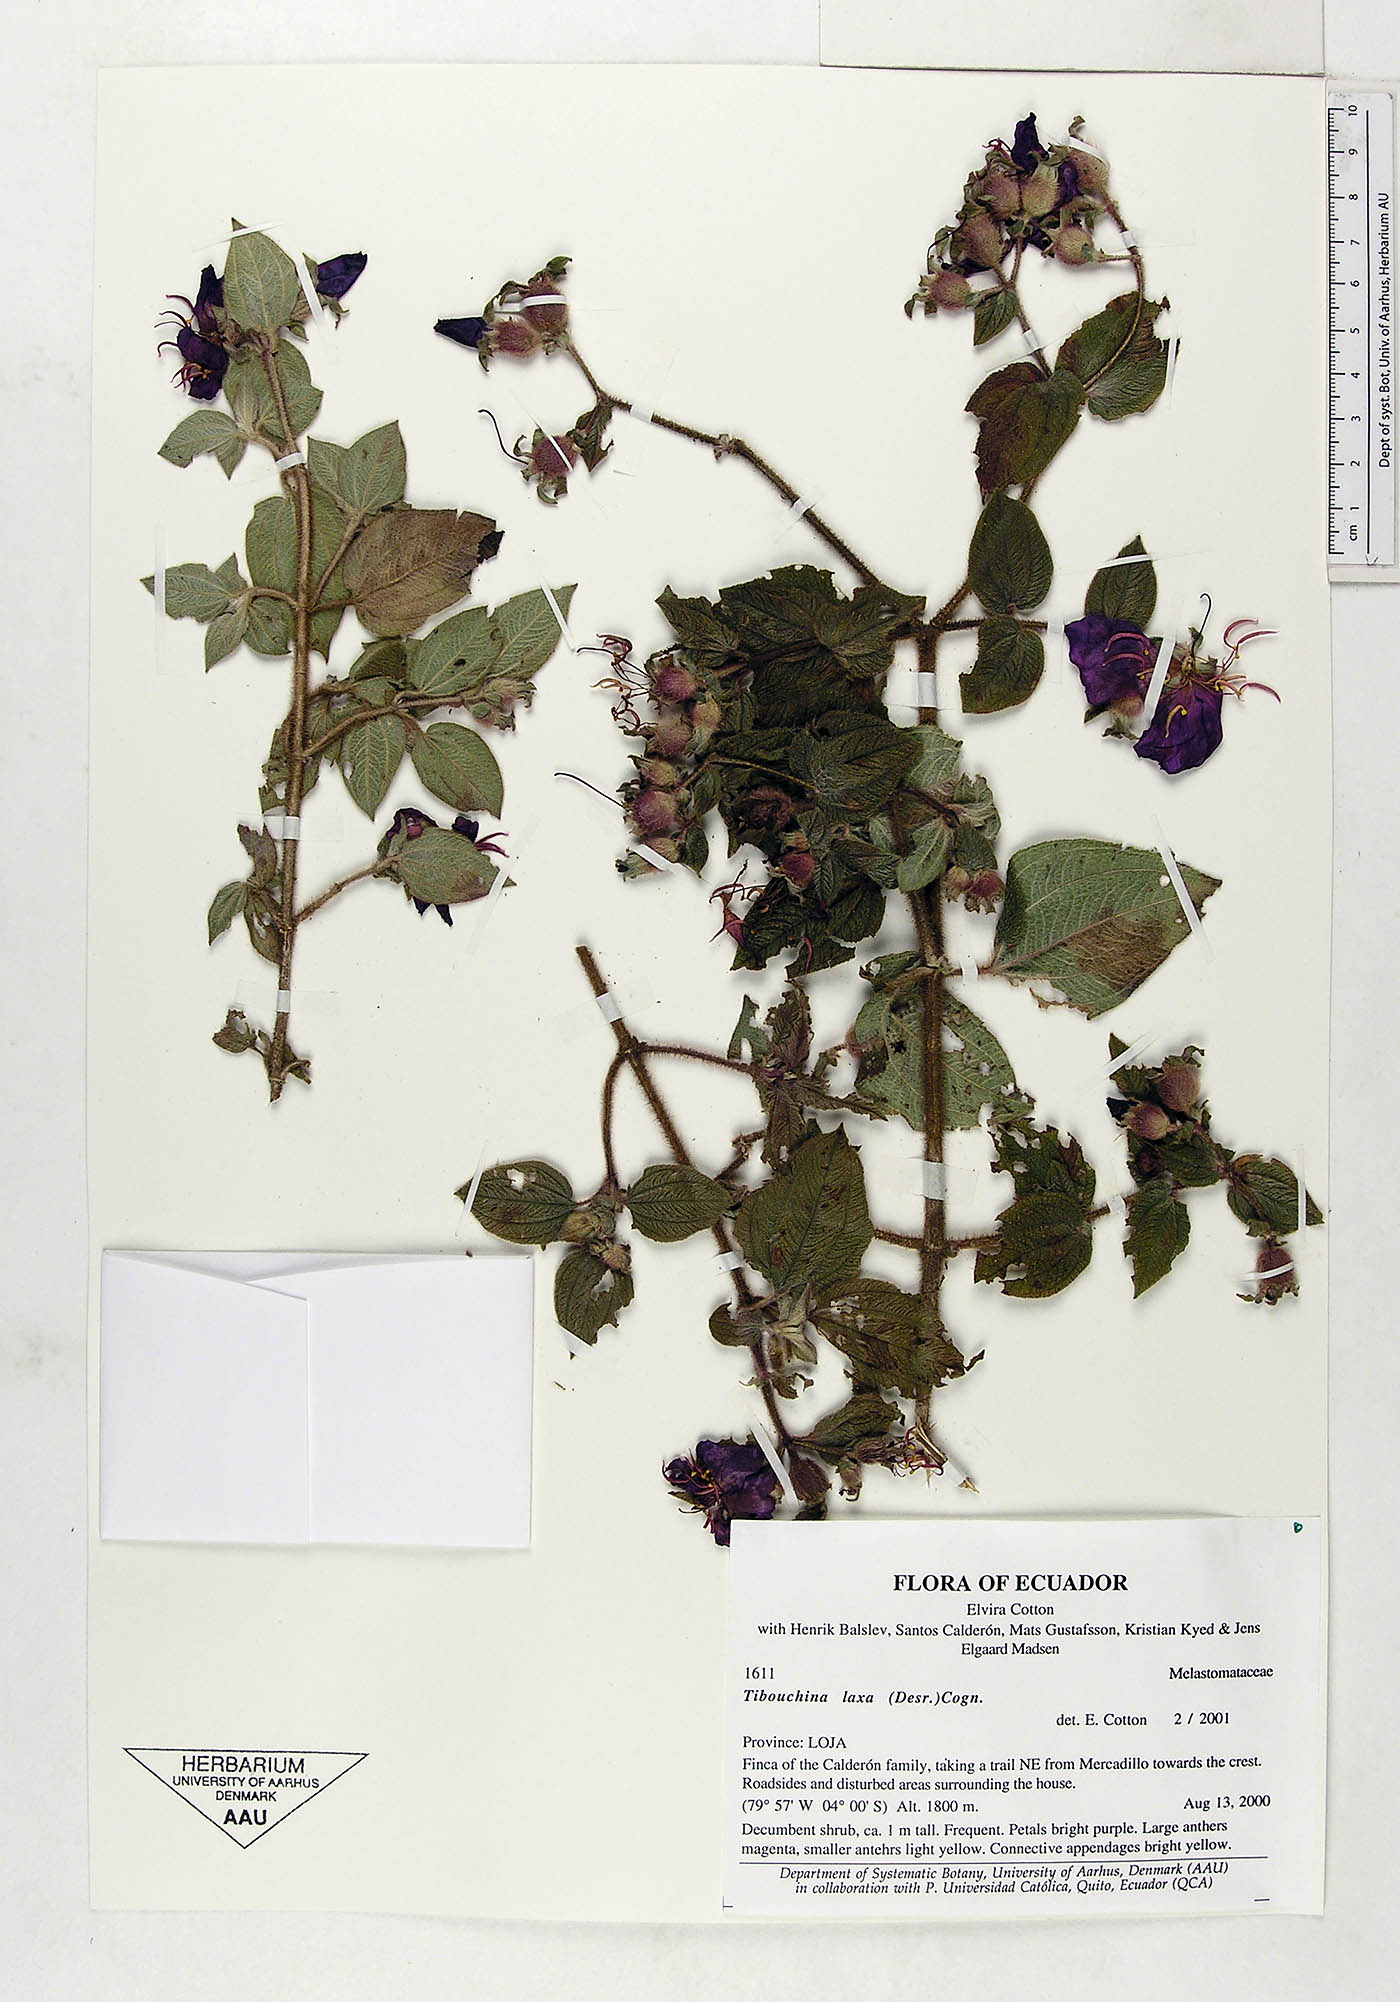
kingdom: Plantae
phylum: Tracheophyta
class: Magnoliopsida
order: Myrtales
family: Melastomataceae
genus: Chaetogastra
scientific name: Chaetogastra laxa
